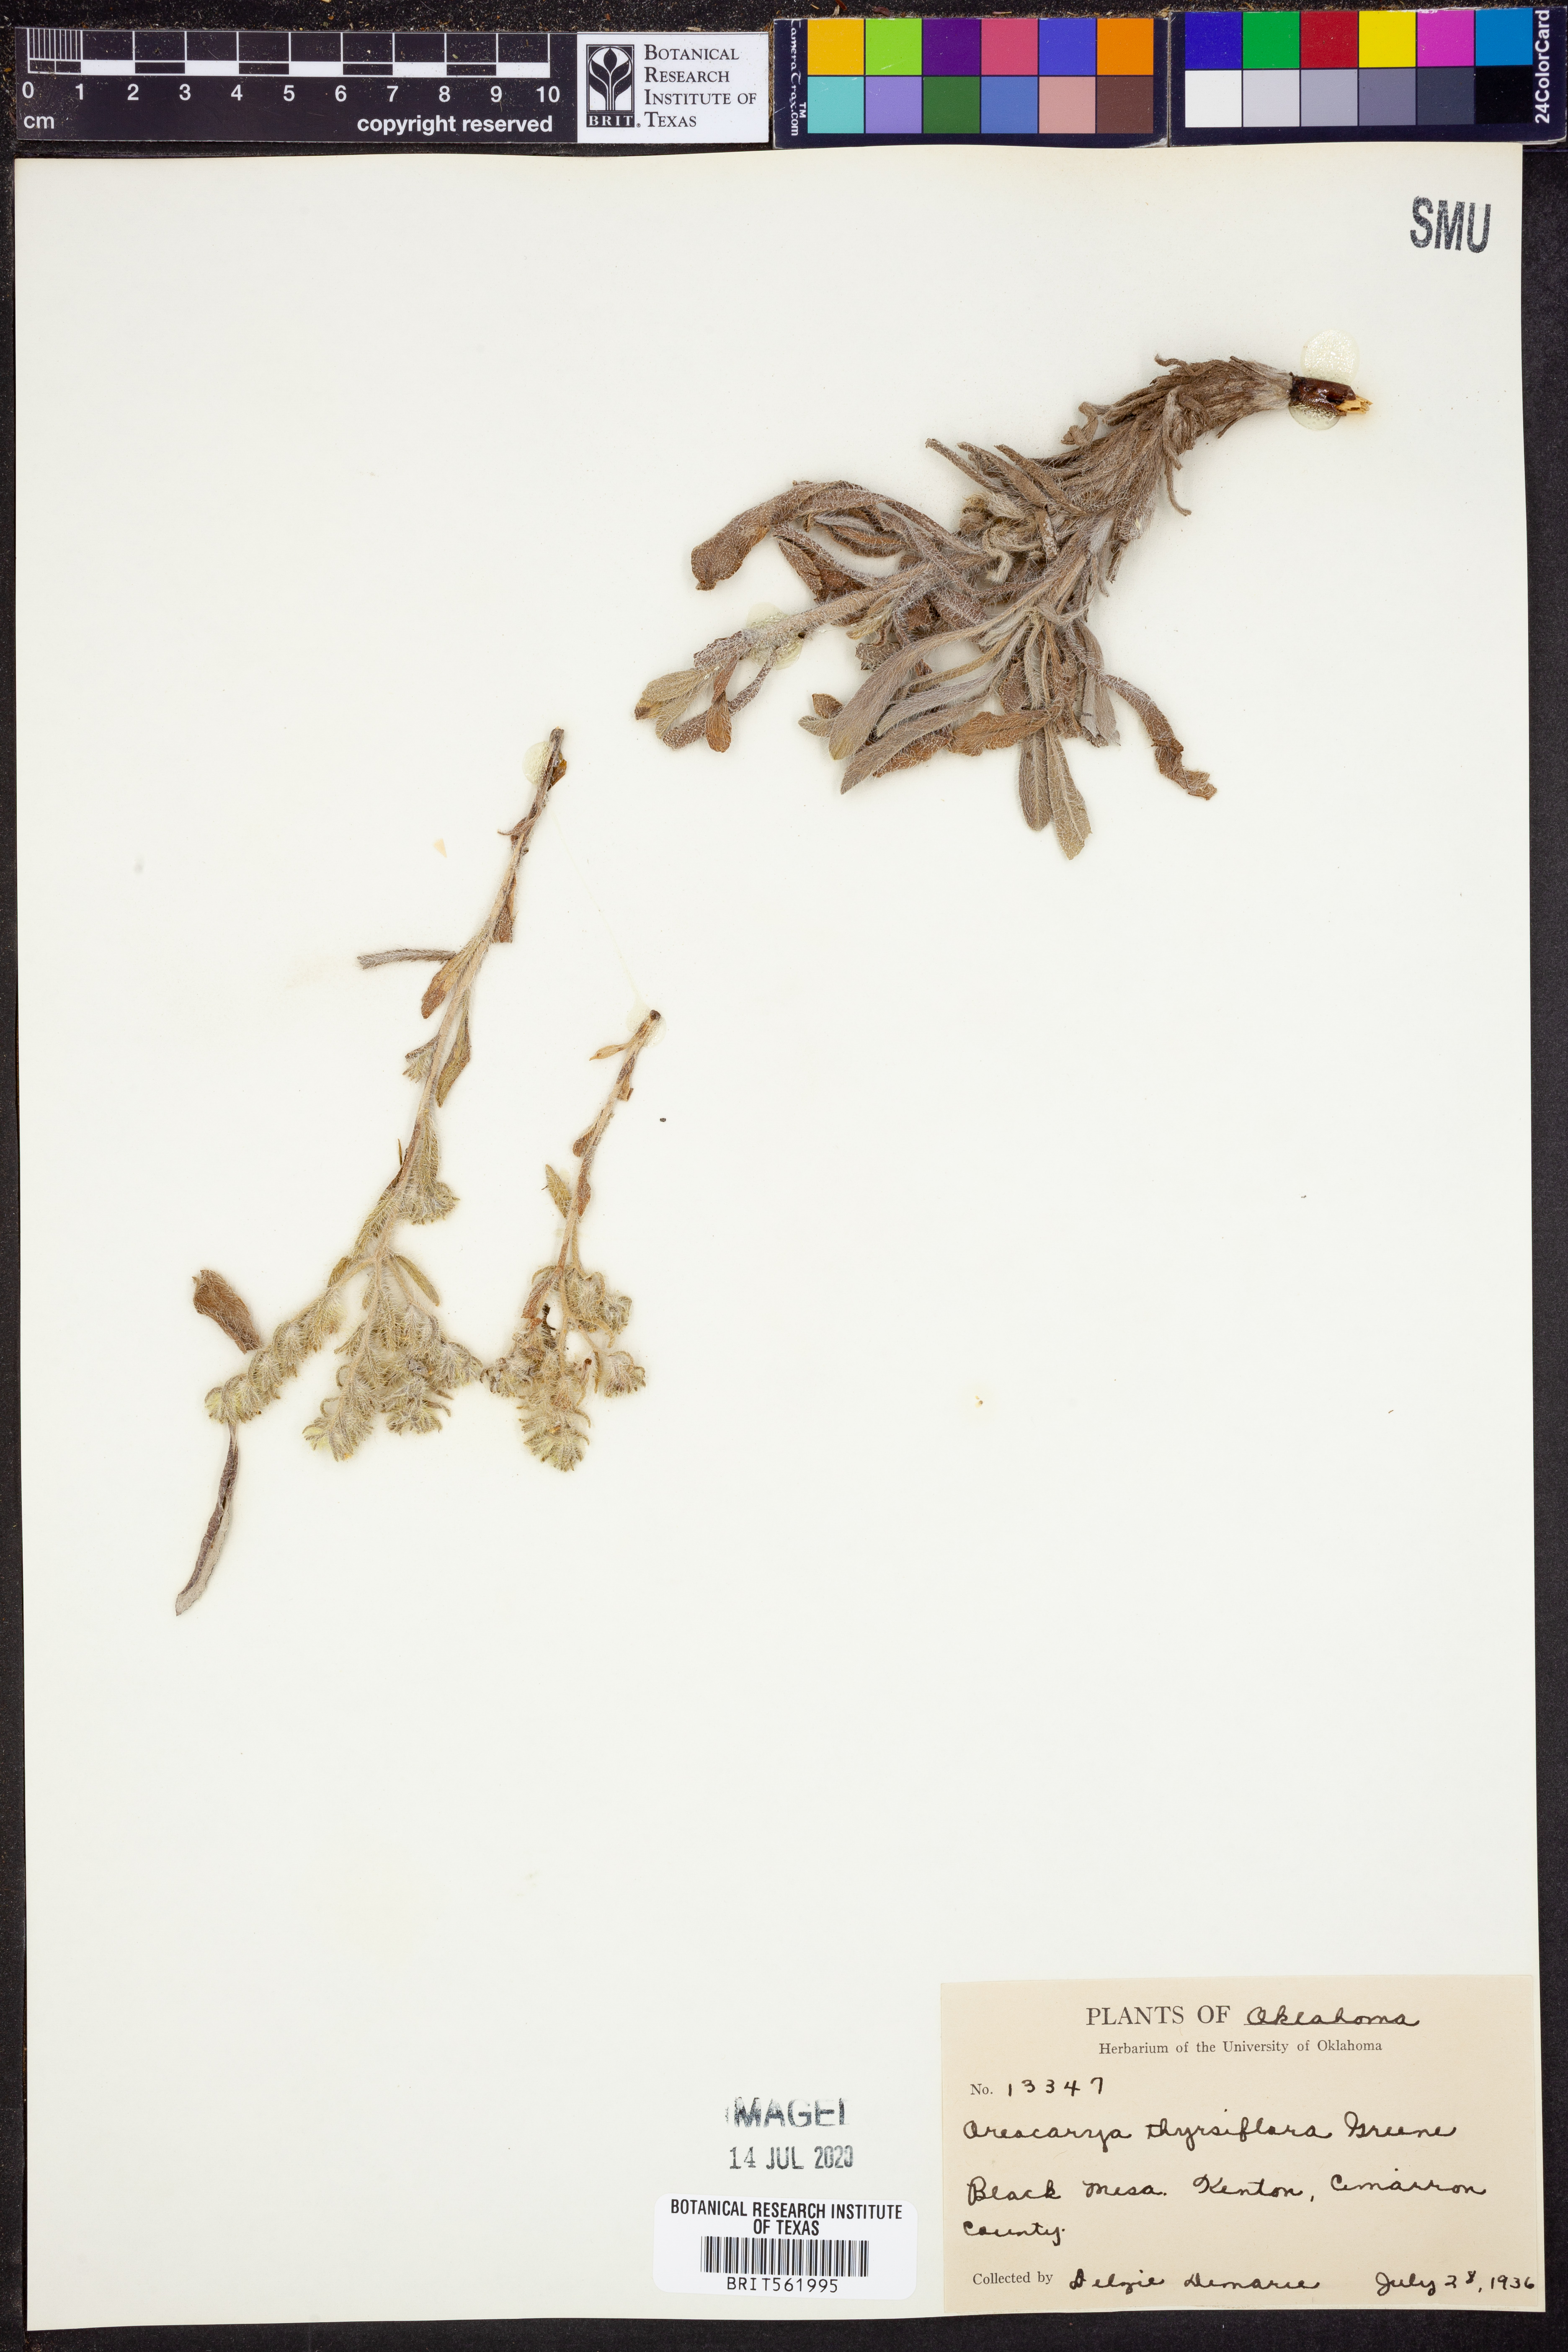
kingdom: Plantae
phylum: Tracheophyta
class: Magnoliopsida
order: Boraginales
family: Boraginaceae
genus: Oreocarya
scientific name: Oreocarya thyrsiflora
